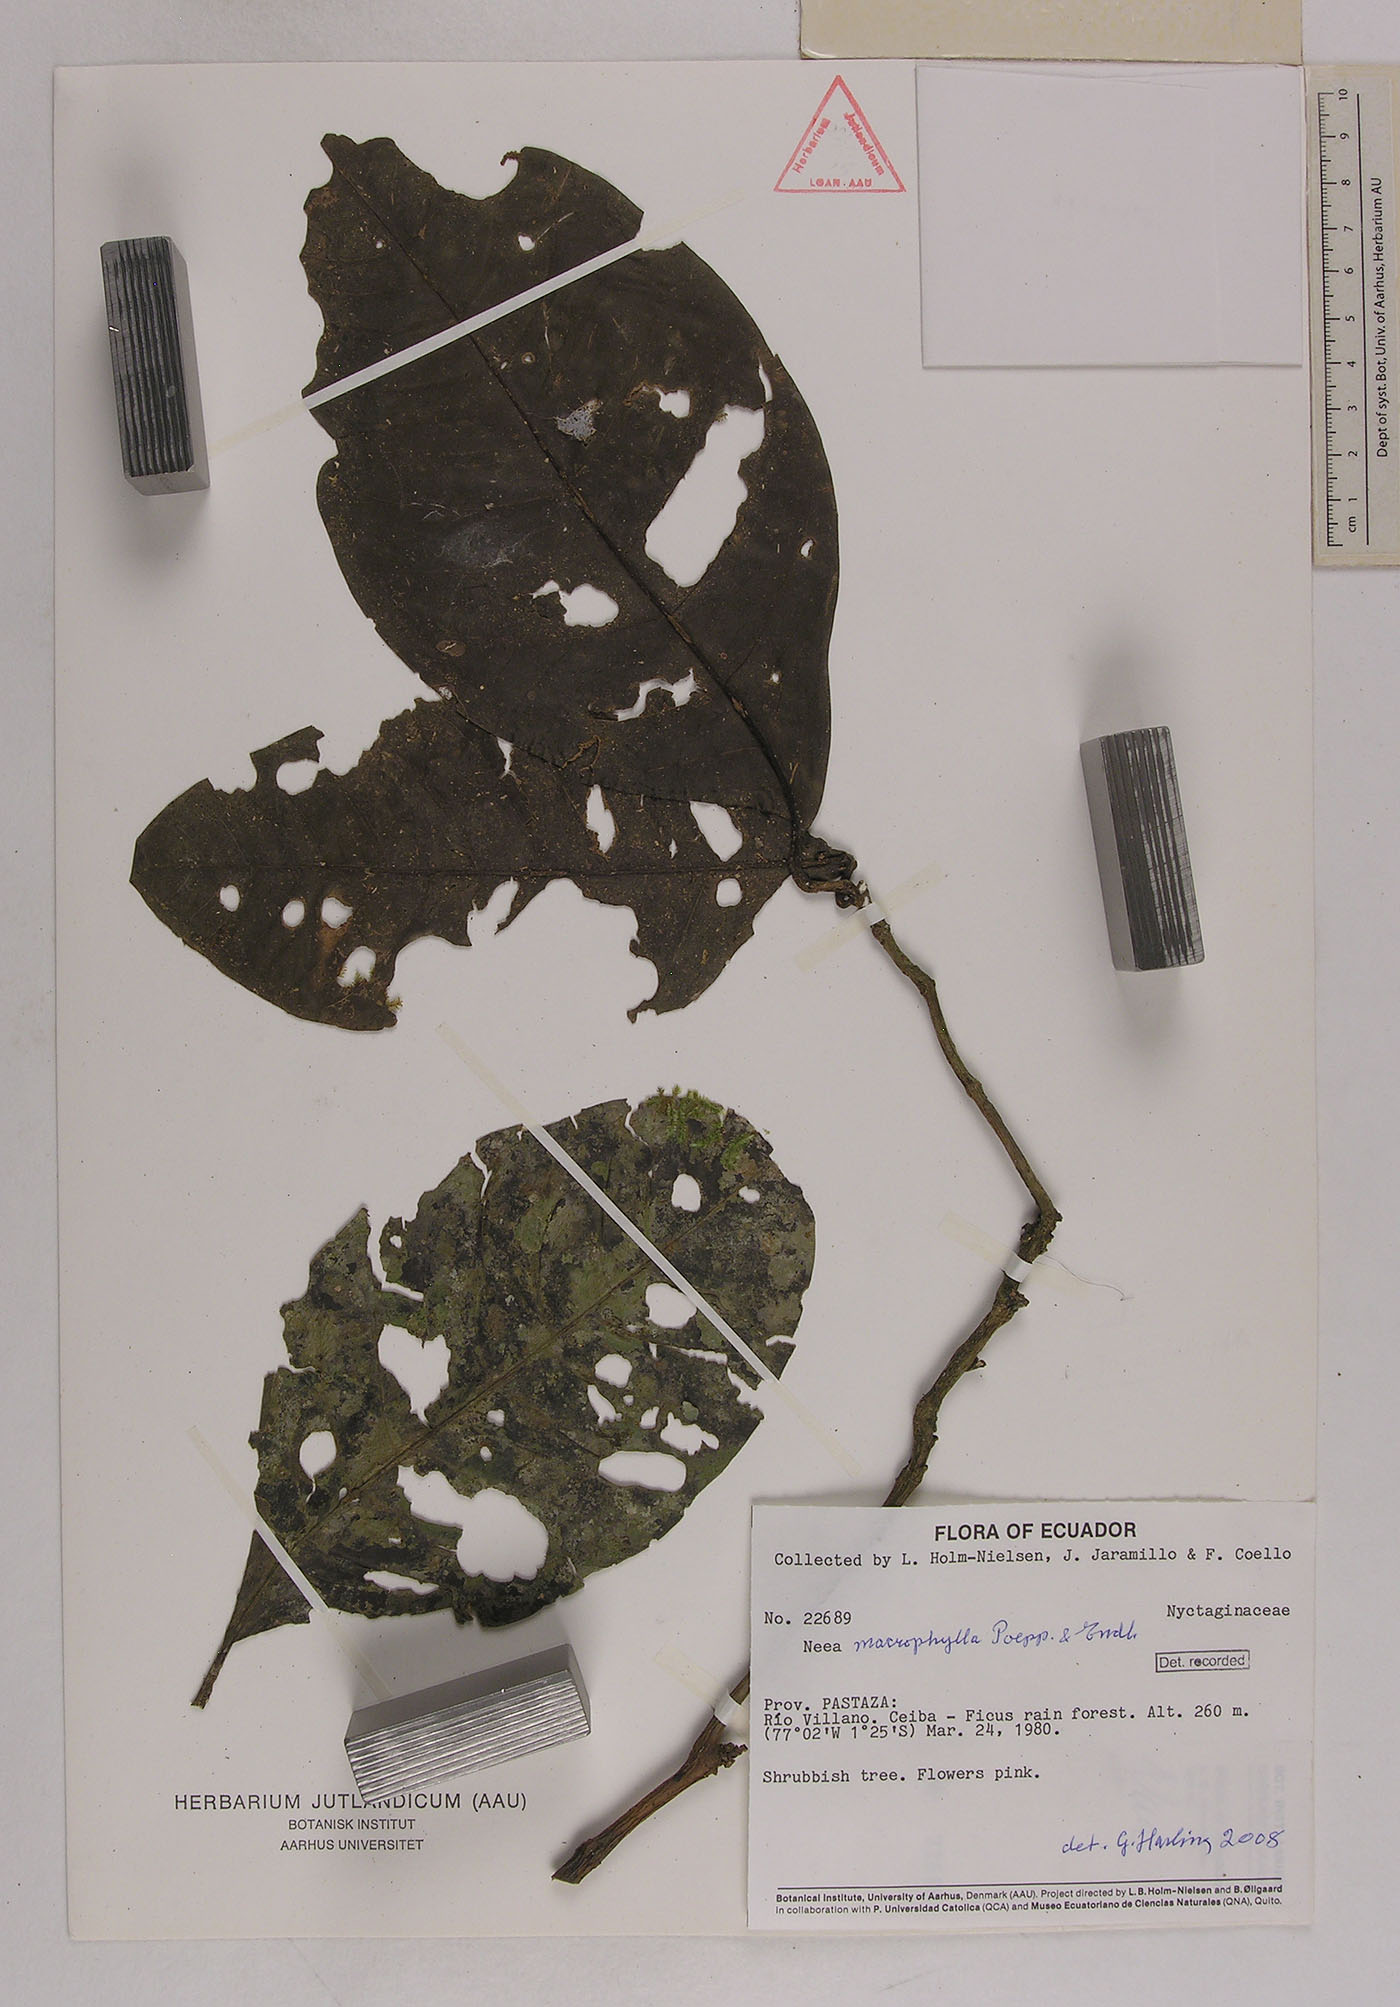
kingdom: Plantae
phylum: Tracheophyta
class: Magnoliopsida
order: Caryophyllales
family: Nyctaginaceae
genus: Neea
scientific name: Neea macrophylla
